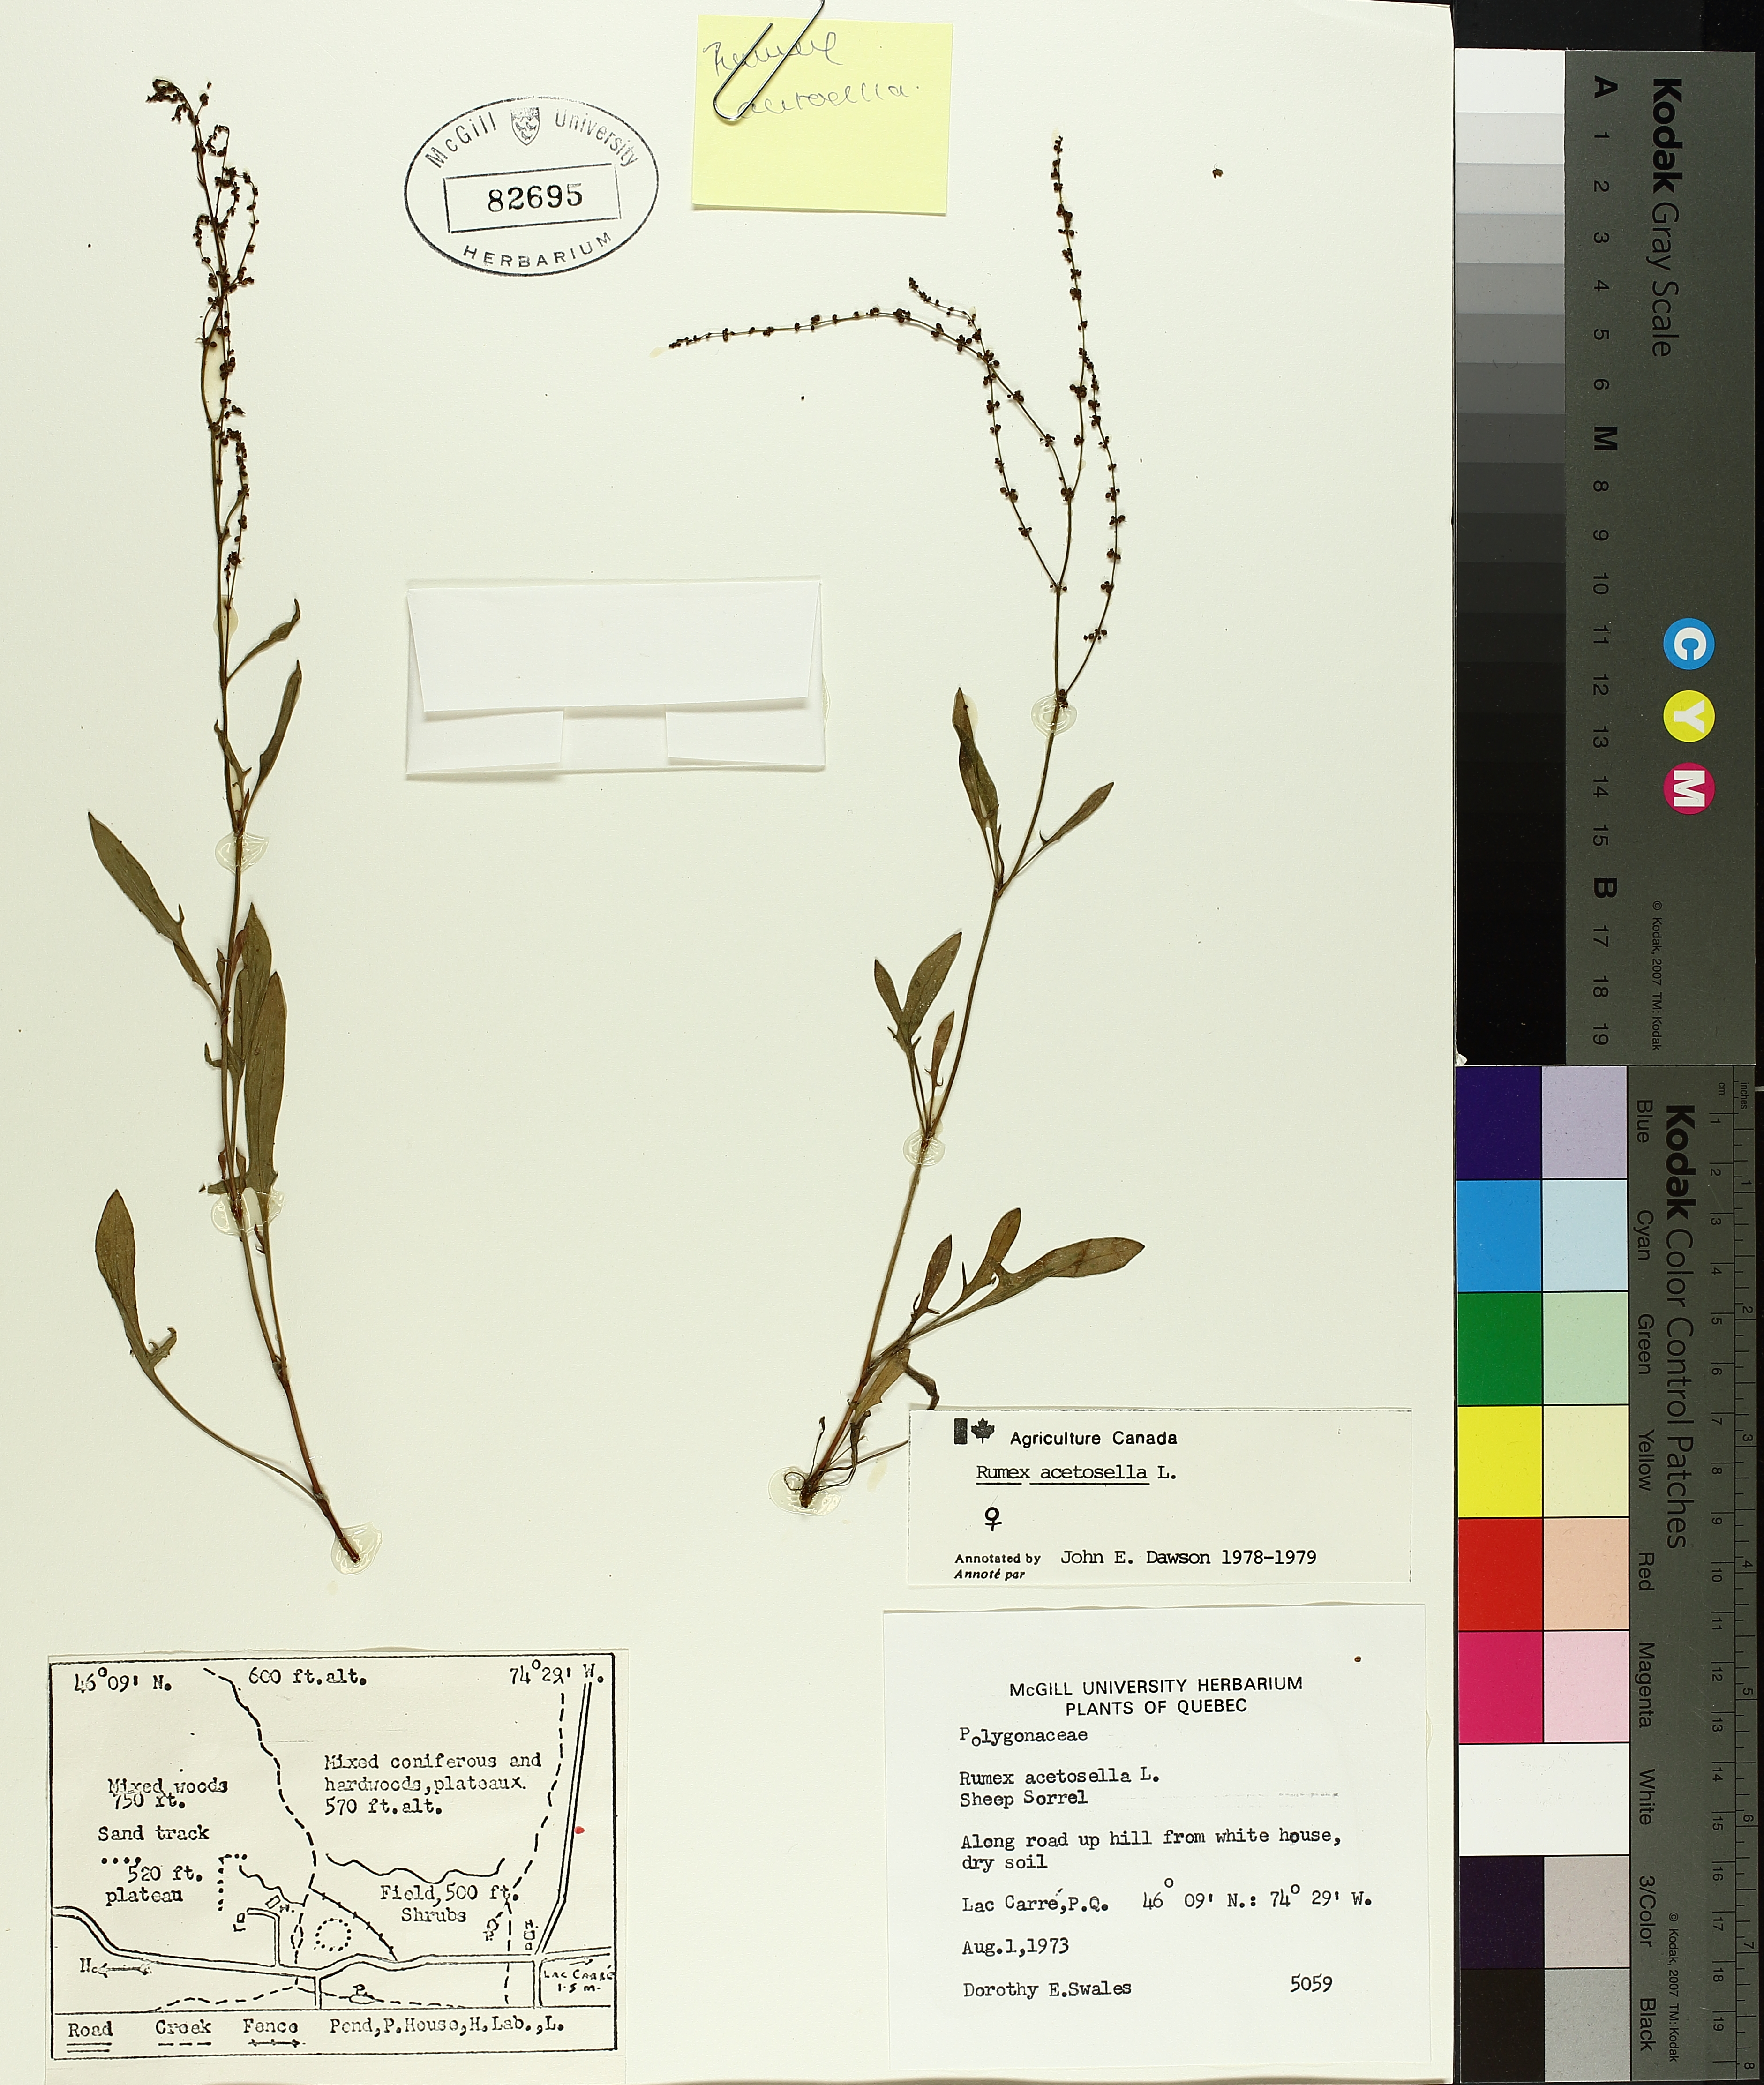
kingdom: Plantae
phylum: Tracheophyta
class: Magnoliopsida
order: Caryophyllales
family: Polygonaceae
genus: Rumex
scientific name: Rumex acetosella
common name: Common sheep sorrel
